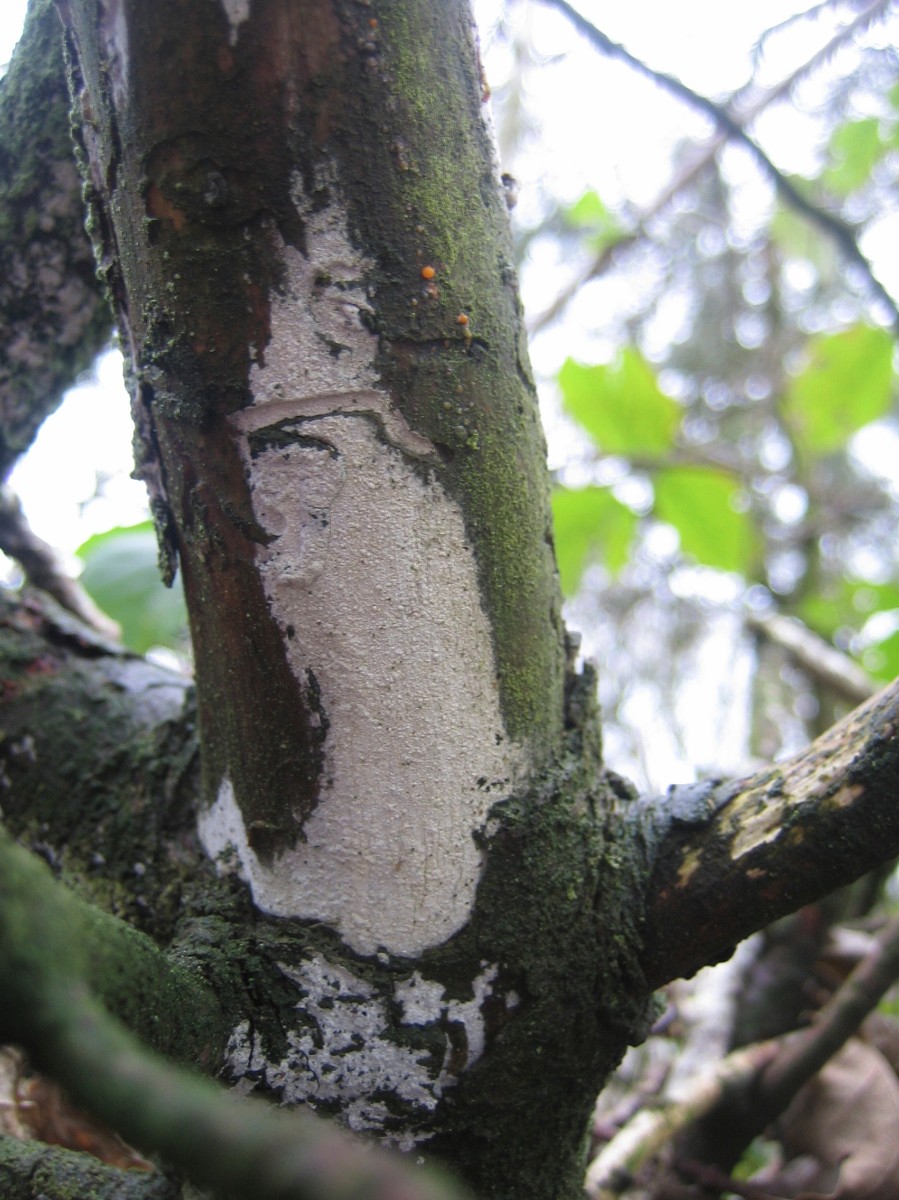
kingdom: Fungi
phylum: Basidiomycota
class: Agaricomycetes
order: Corticiales
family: Corticiaceae
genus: Lyomyces
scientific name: Lyomyces sambuci
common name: almindelig hyldehinde
